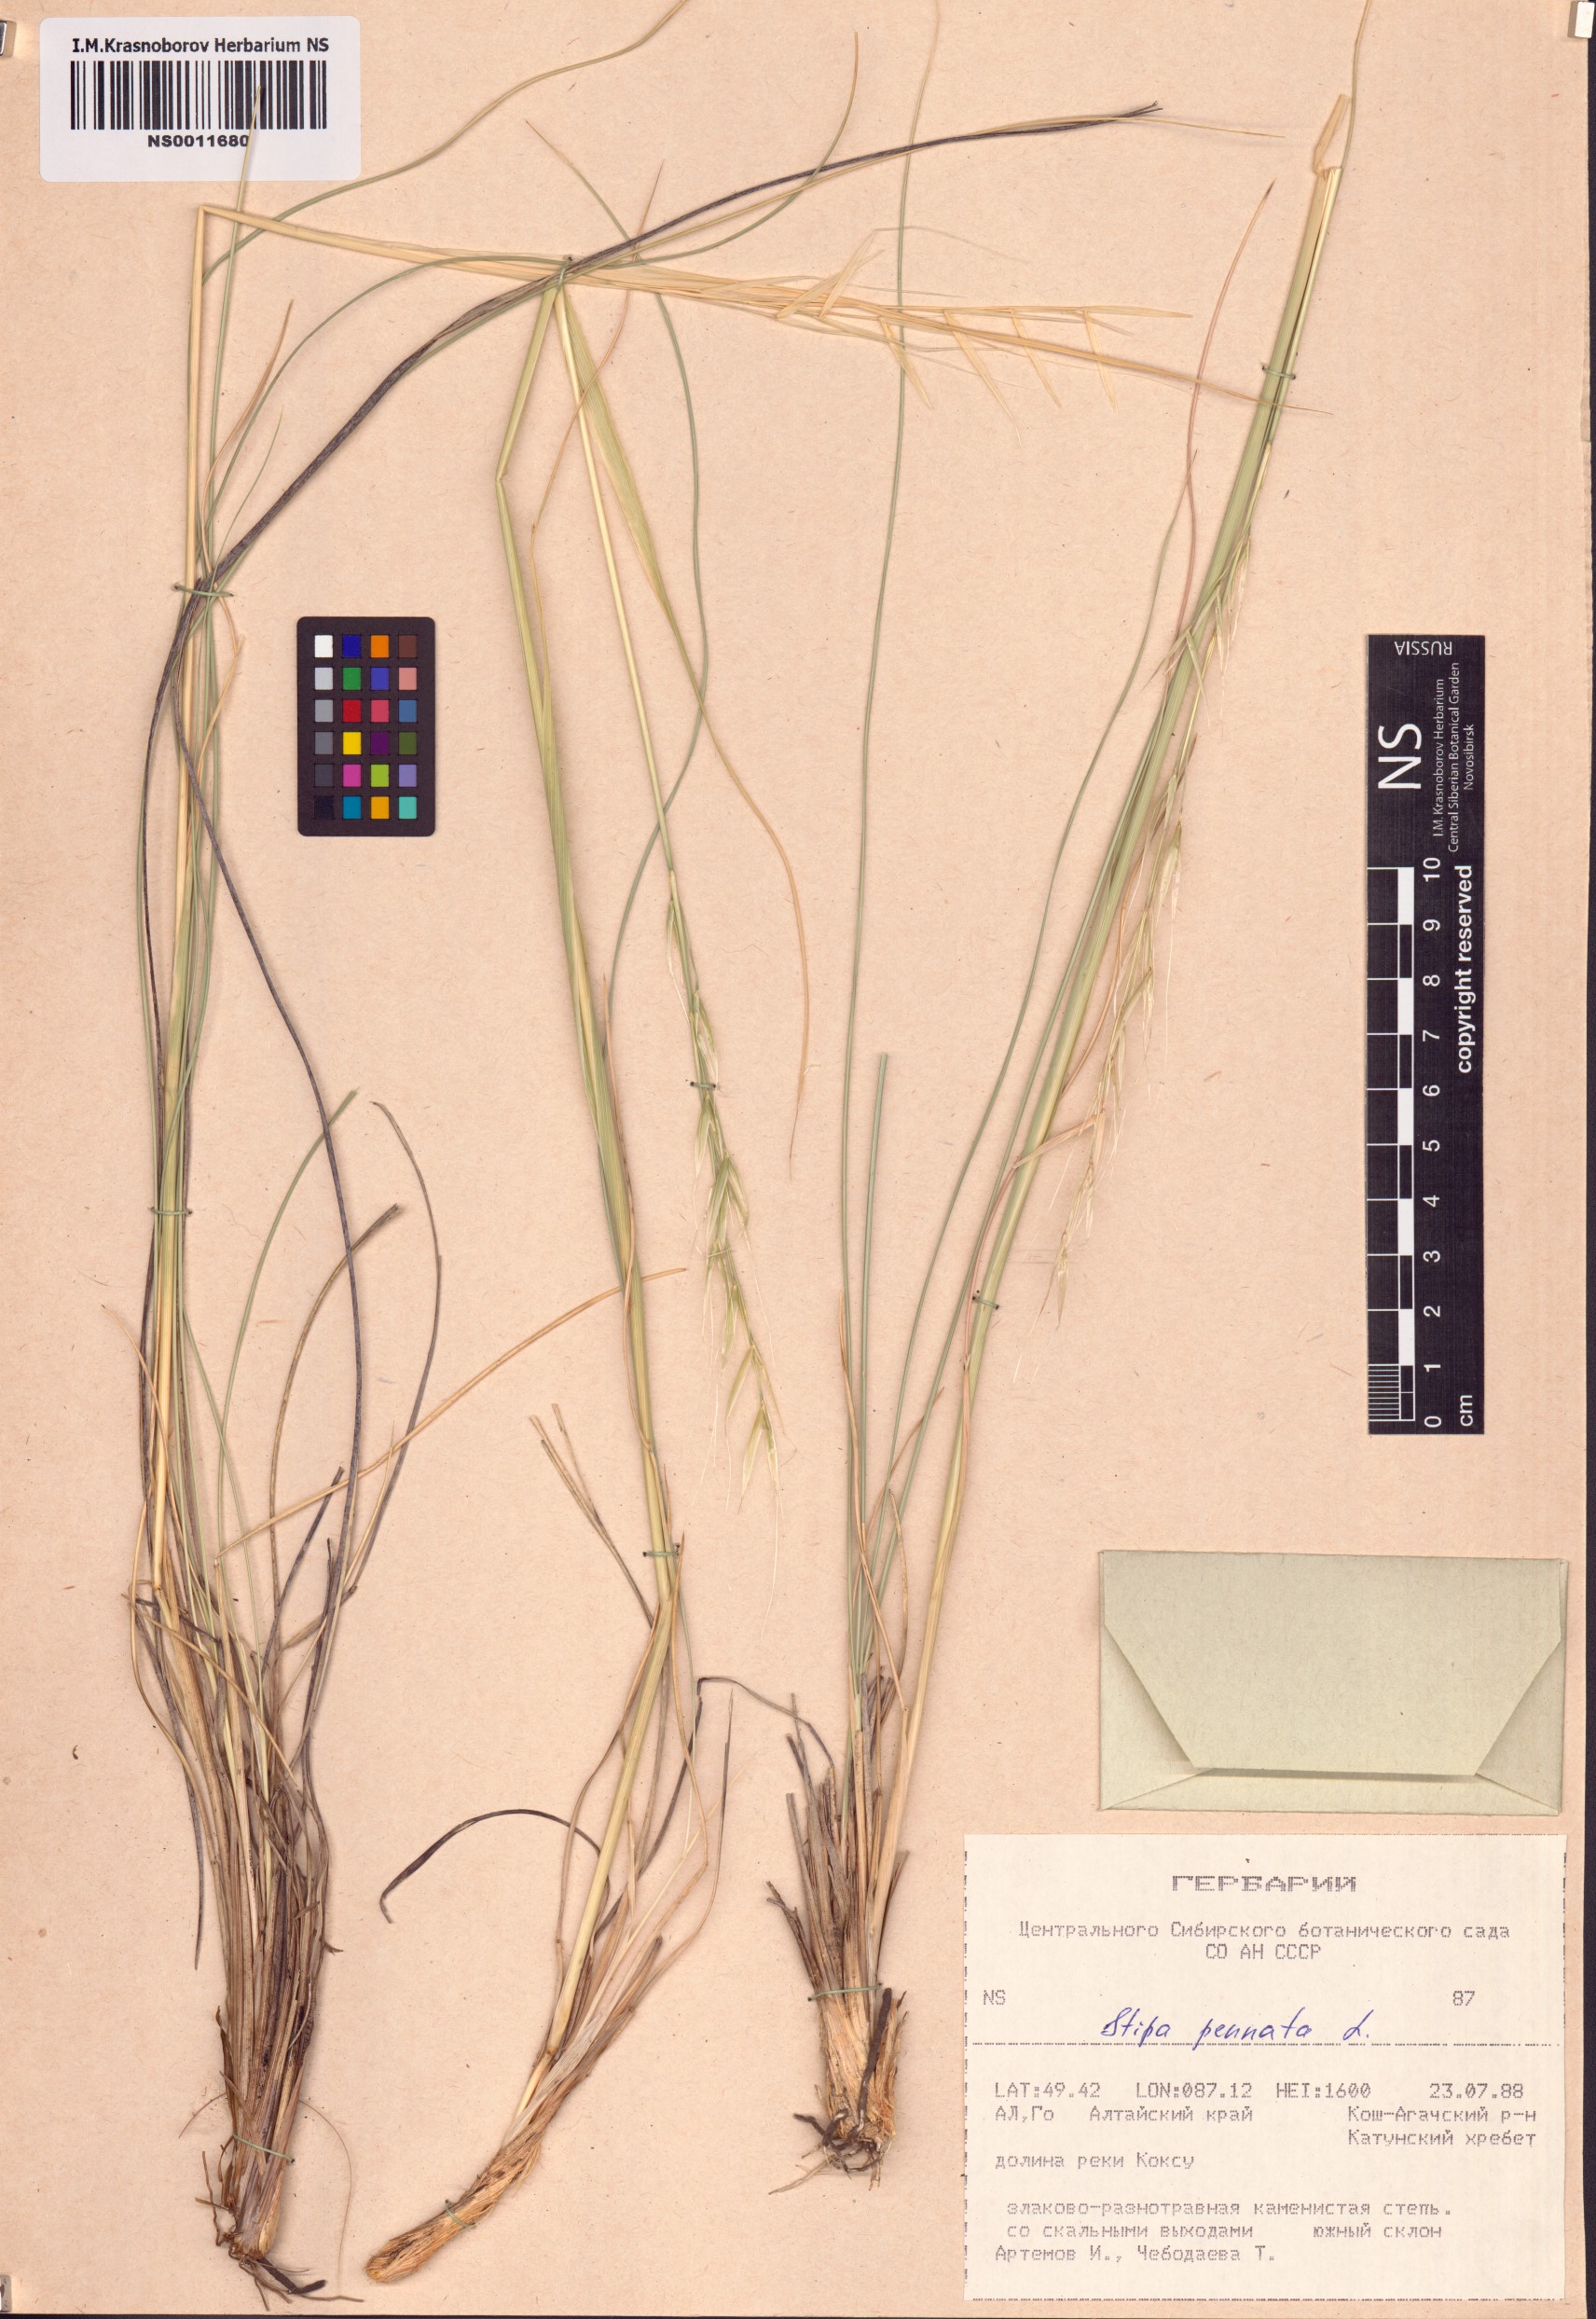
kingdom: Plantae
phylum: Tracheophyta
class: Liliopsida
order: Poales
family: Poaceae
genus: Stipa
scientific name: Stipa pennata
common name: European feather grass
